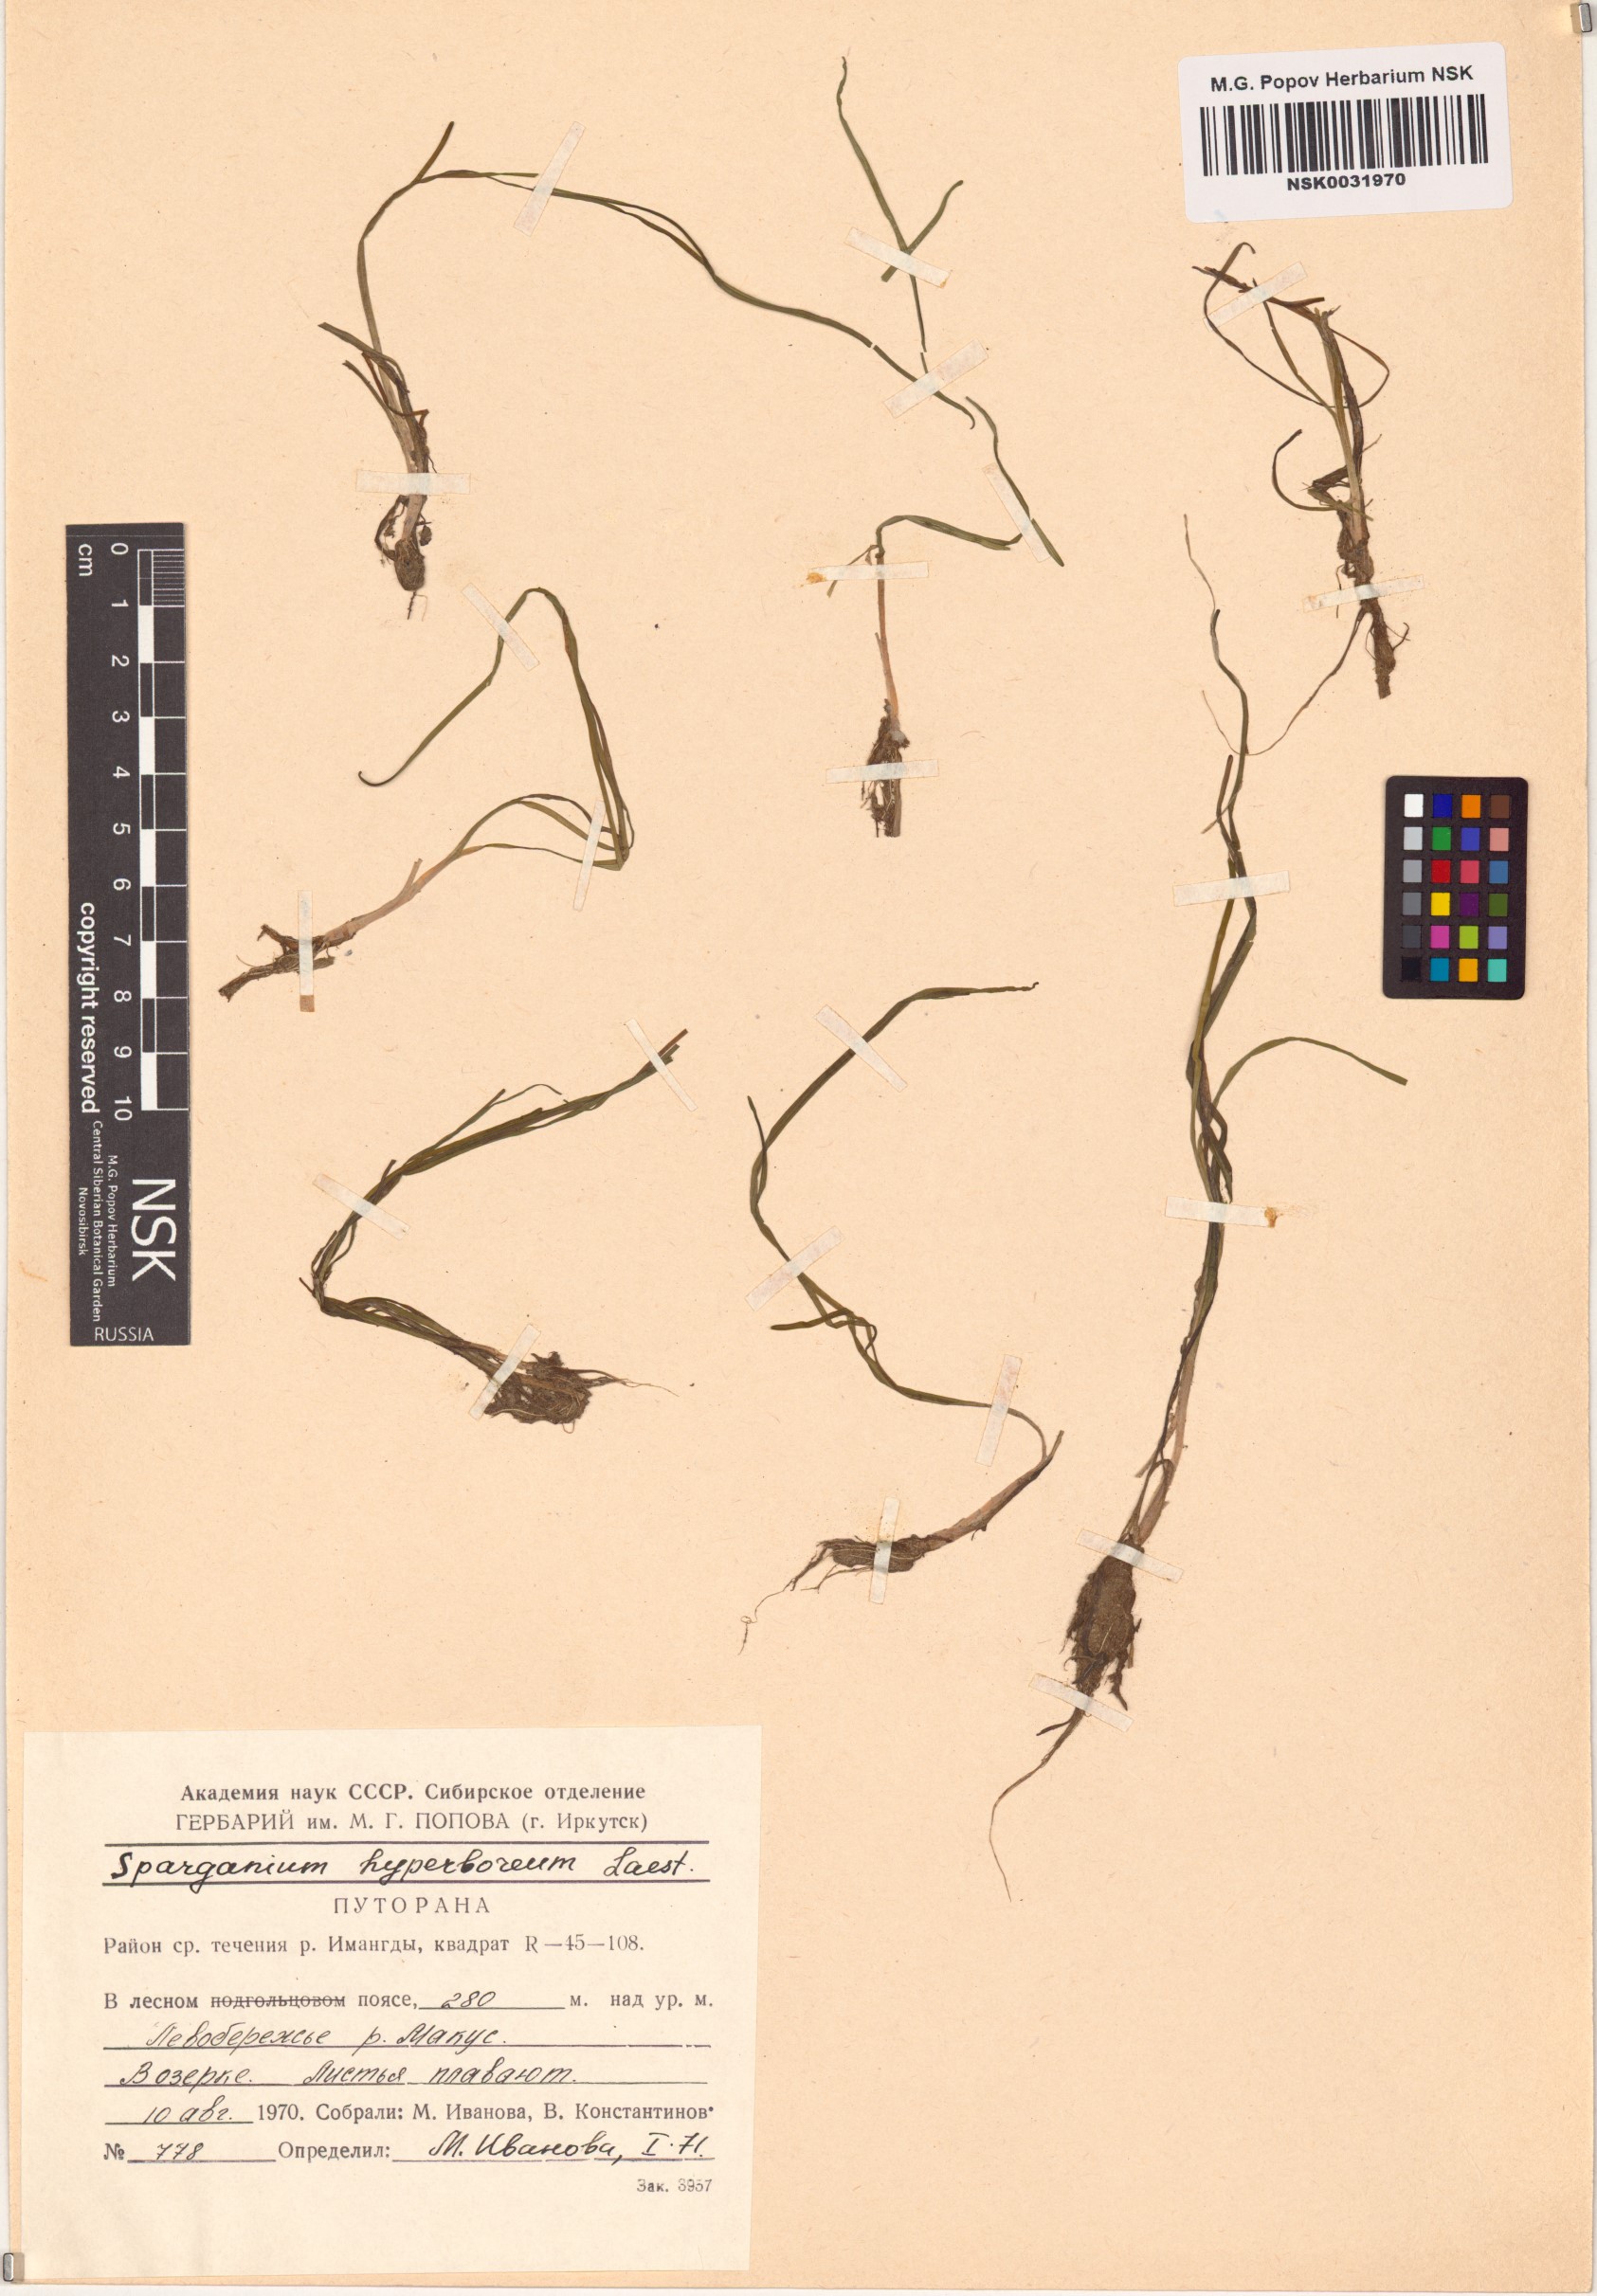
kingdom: Plantae
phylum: Tracheophyta
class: Liliopsida
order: Poales
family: Typhaceae
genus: Sparganium
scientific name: Sparganium hyperboreum
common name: Arctic burreed
